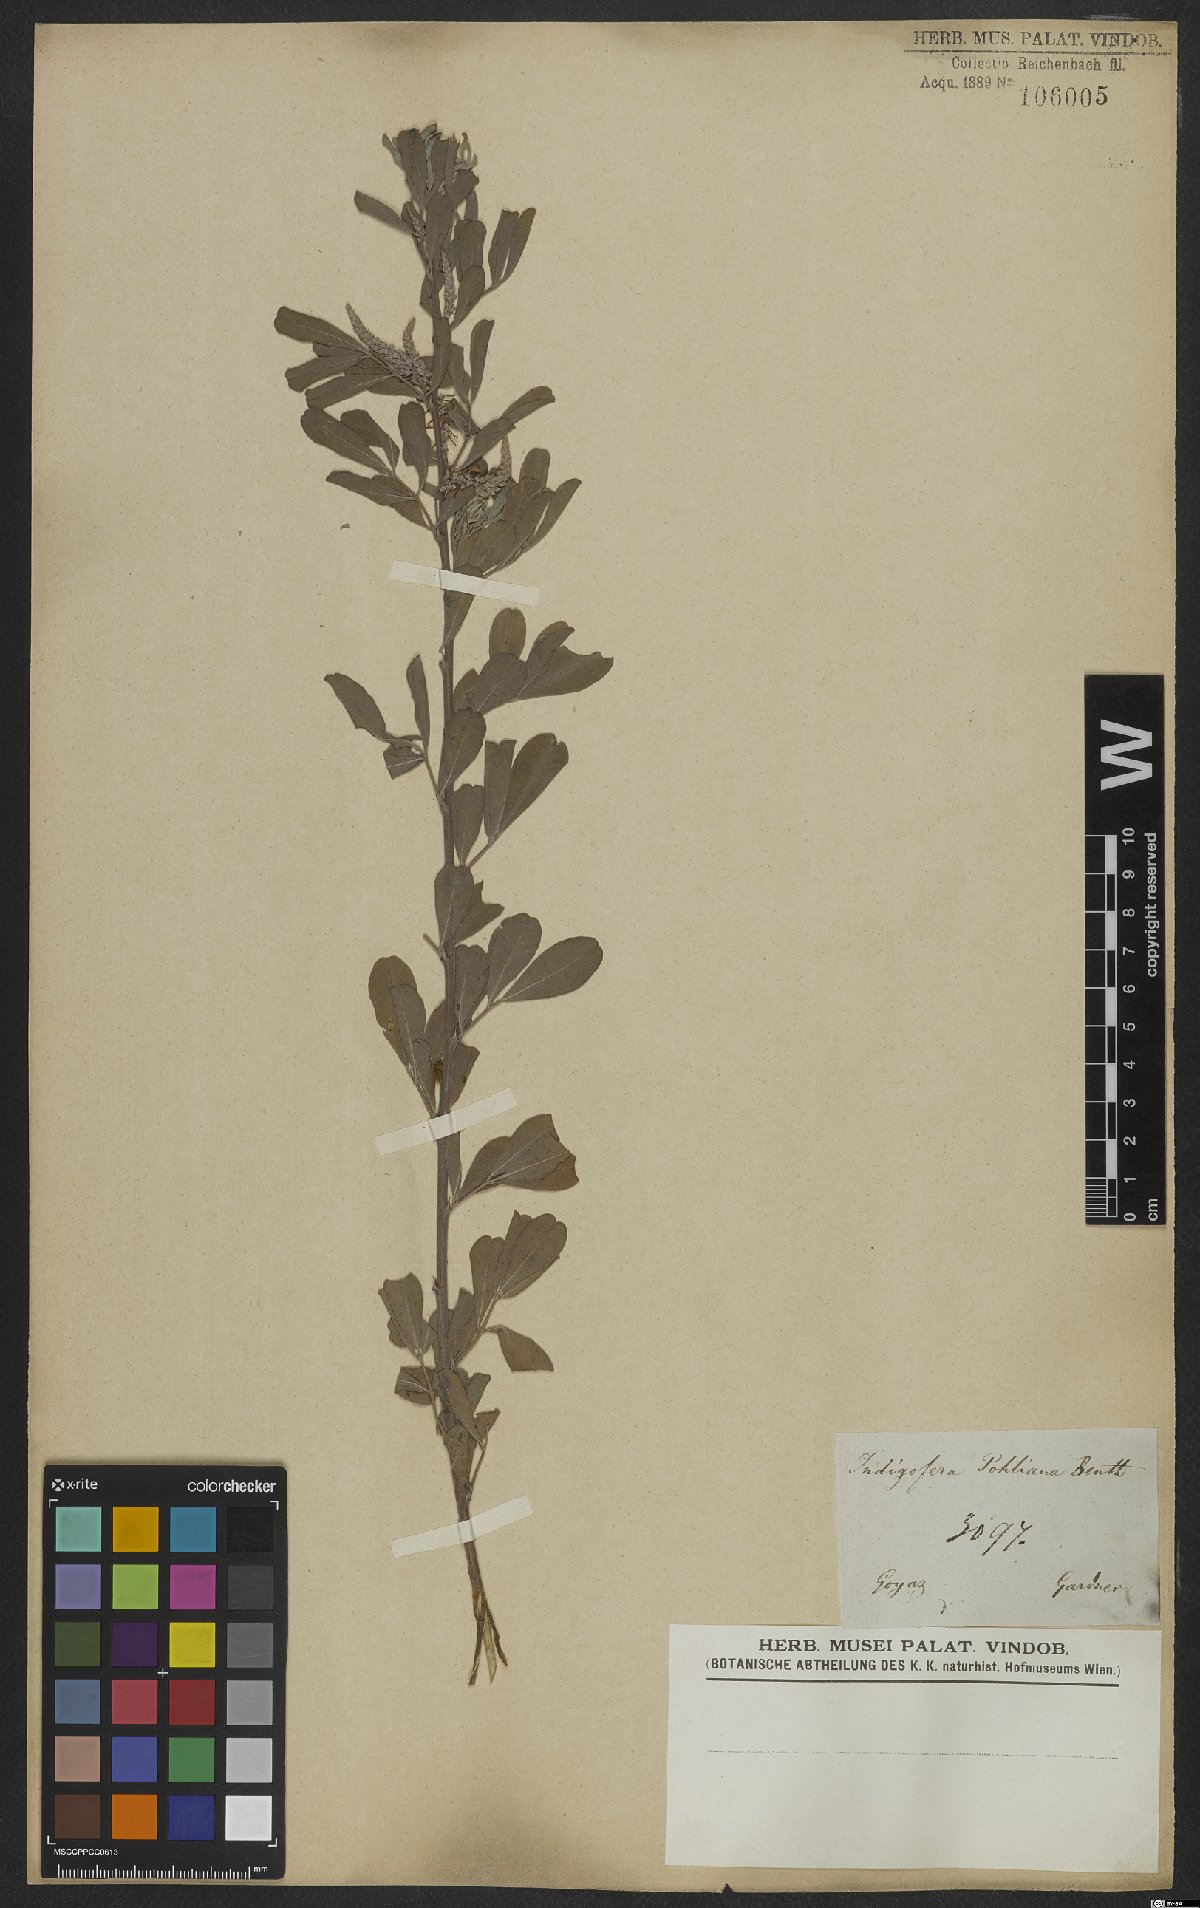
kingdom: Plantae
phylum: Tracheophyta
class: Magnoliopsida
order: Fabales
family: Fabaceae
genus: Indigofera
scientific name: Indigofera lespedezioides
